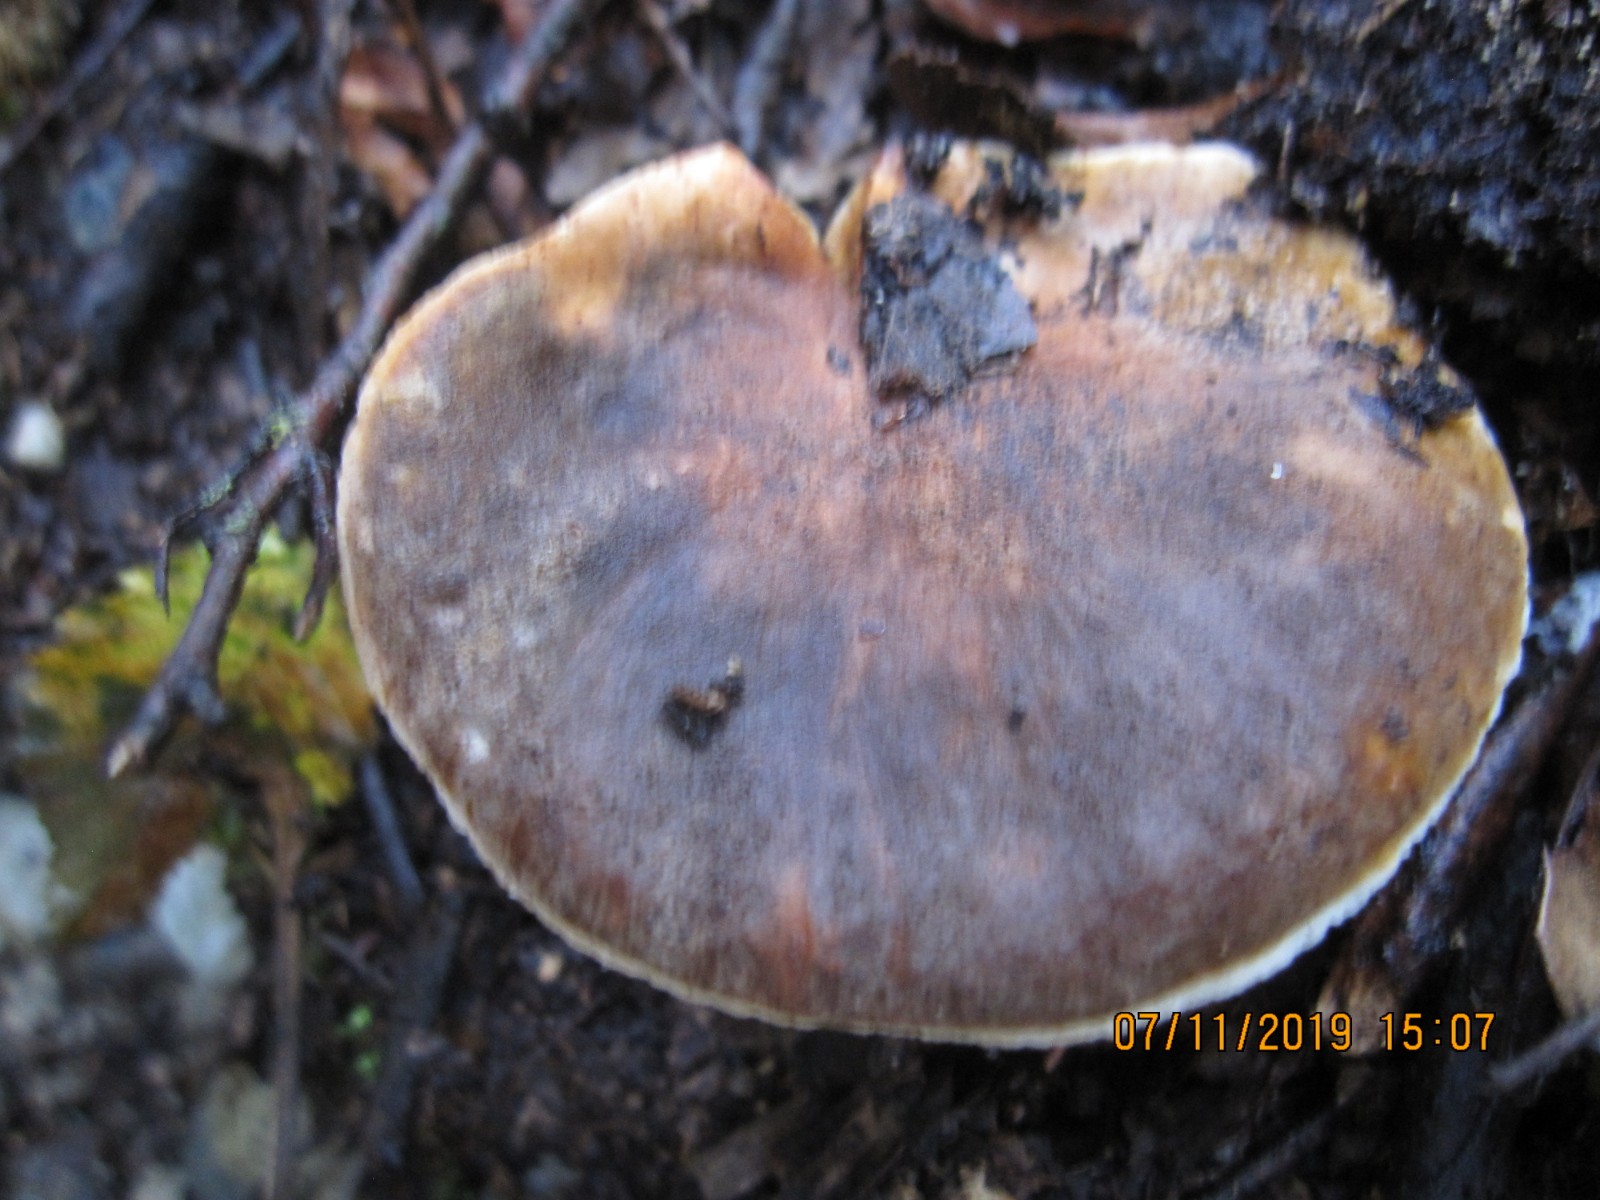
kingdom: Fungi
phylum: Basidiomycota
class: Agaricomycetes
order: Boletales
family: Gyroporaceae
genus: Gyroporus
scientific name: Gyroporus castaneus
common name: kastanie-kammerrørhat
